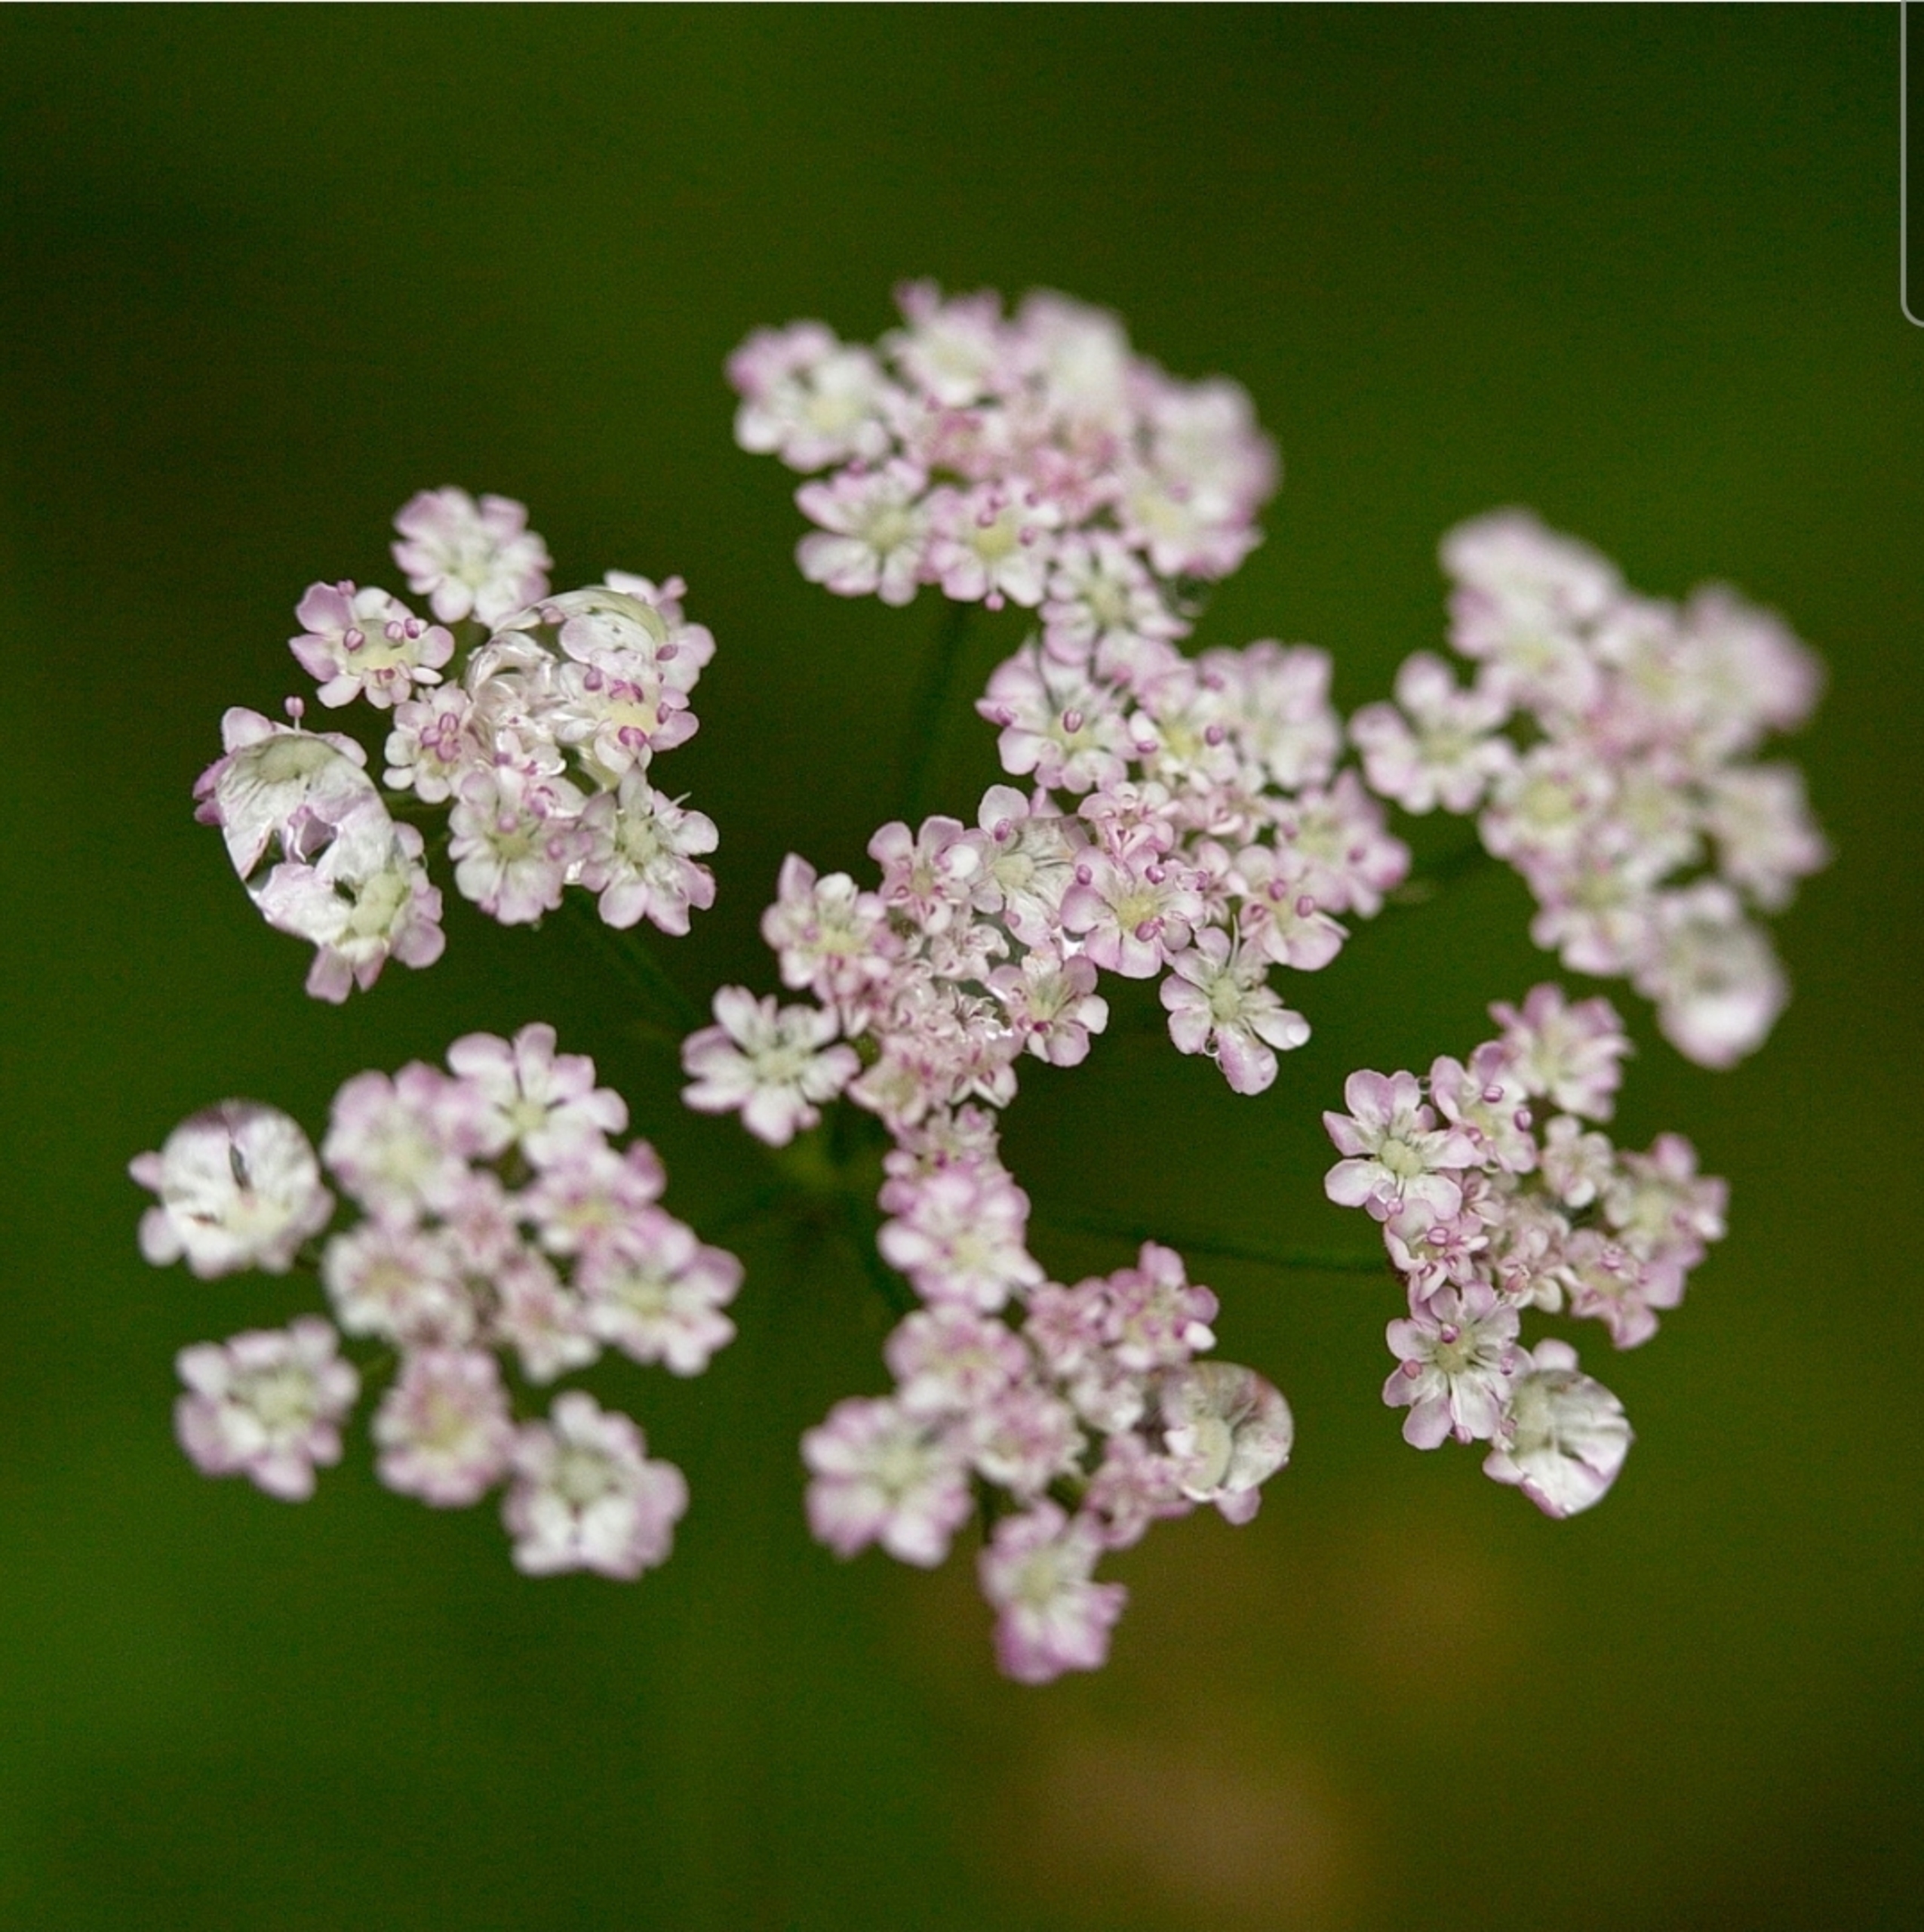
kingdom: Plantae
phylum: Tracheophyta
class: Magnoliopsida
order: Apiales
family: Apiaceae
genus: Torilis
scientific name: Torilis japonica
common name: Hvas randfrø
